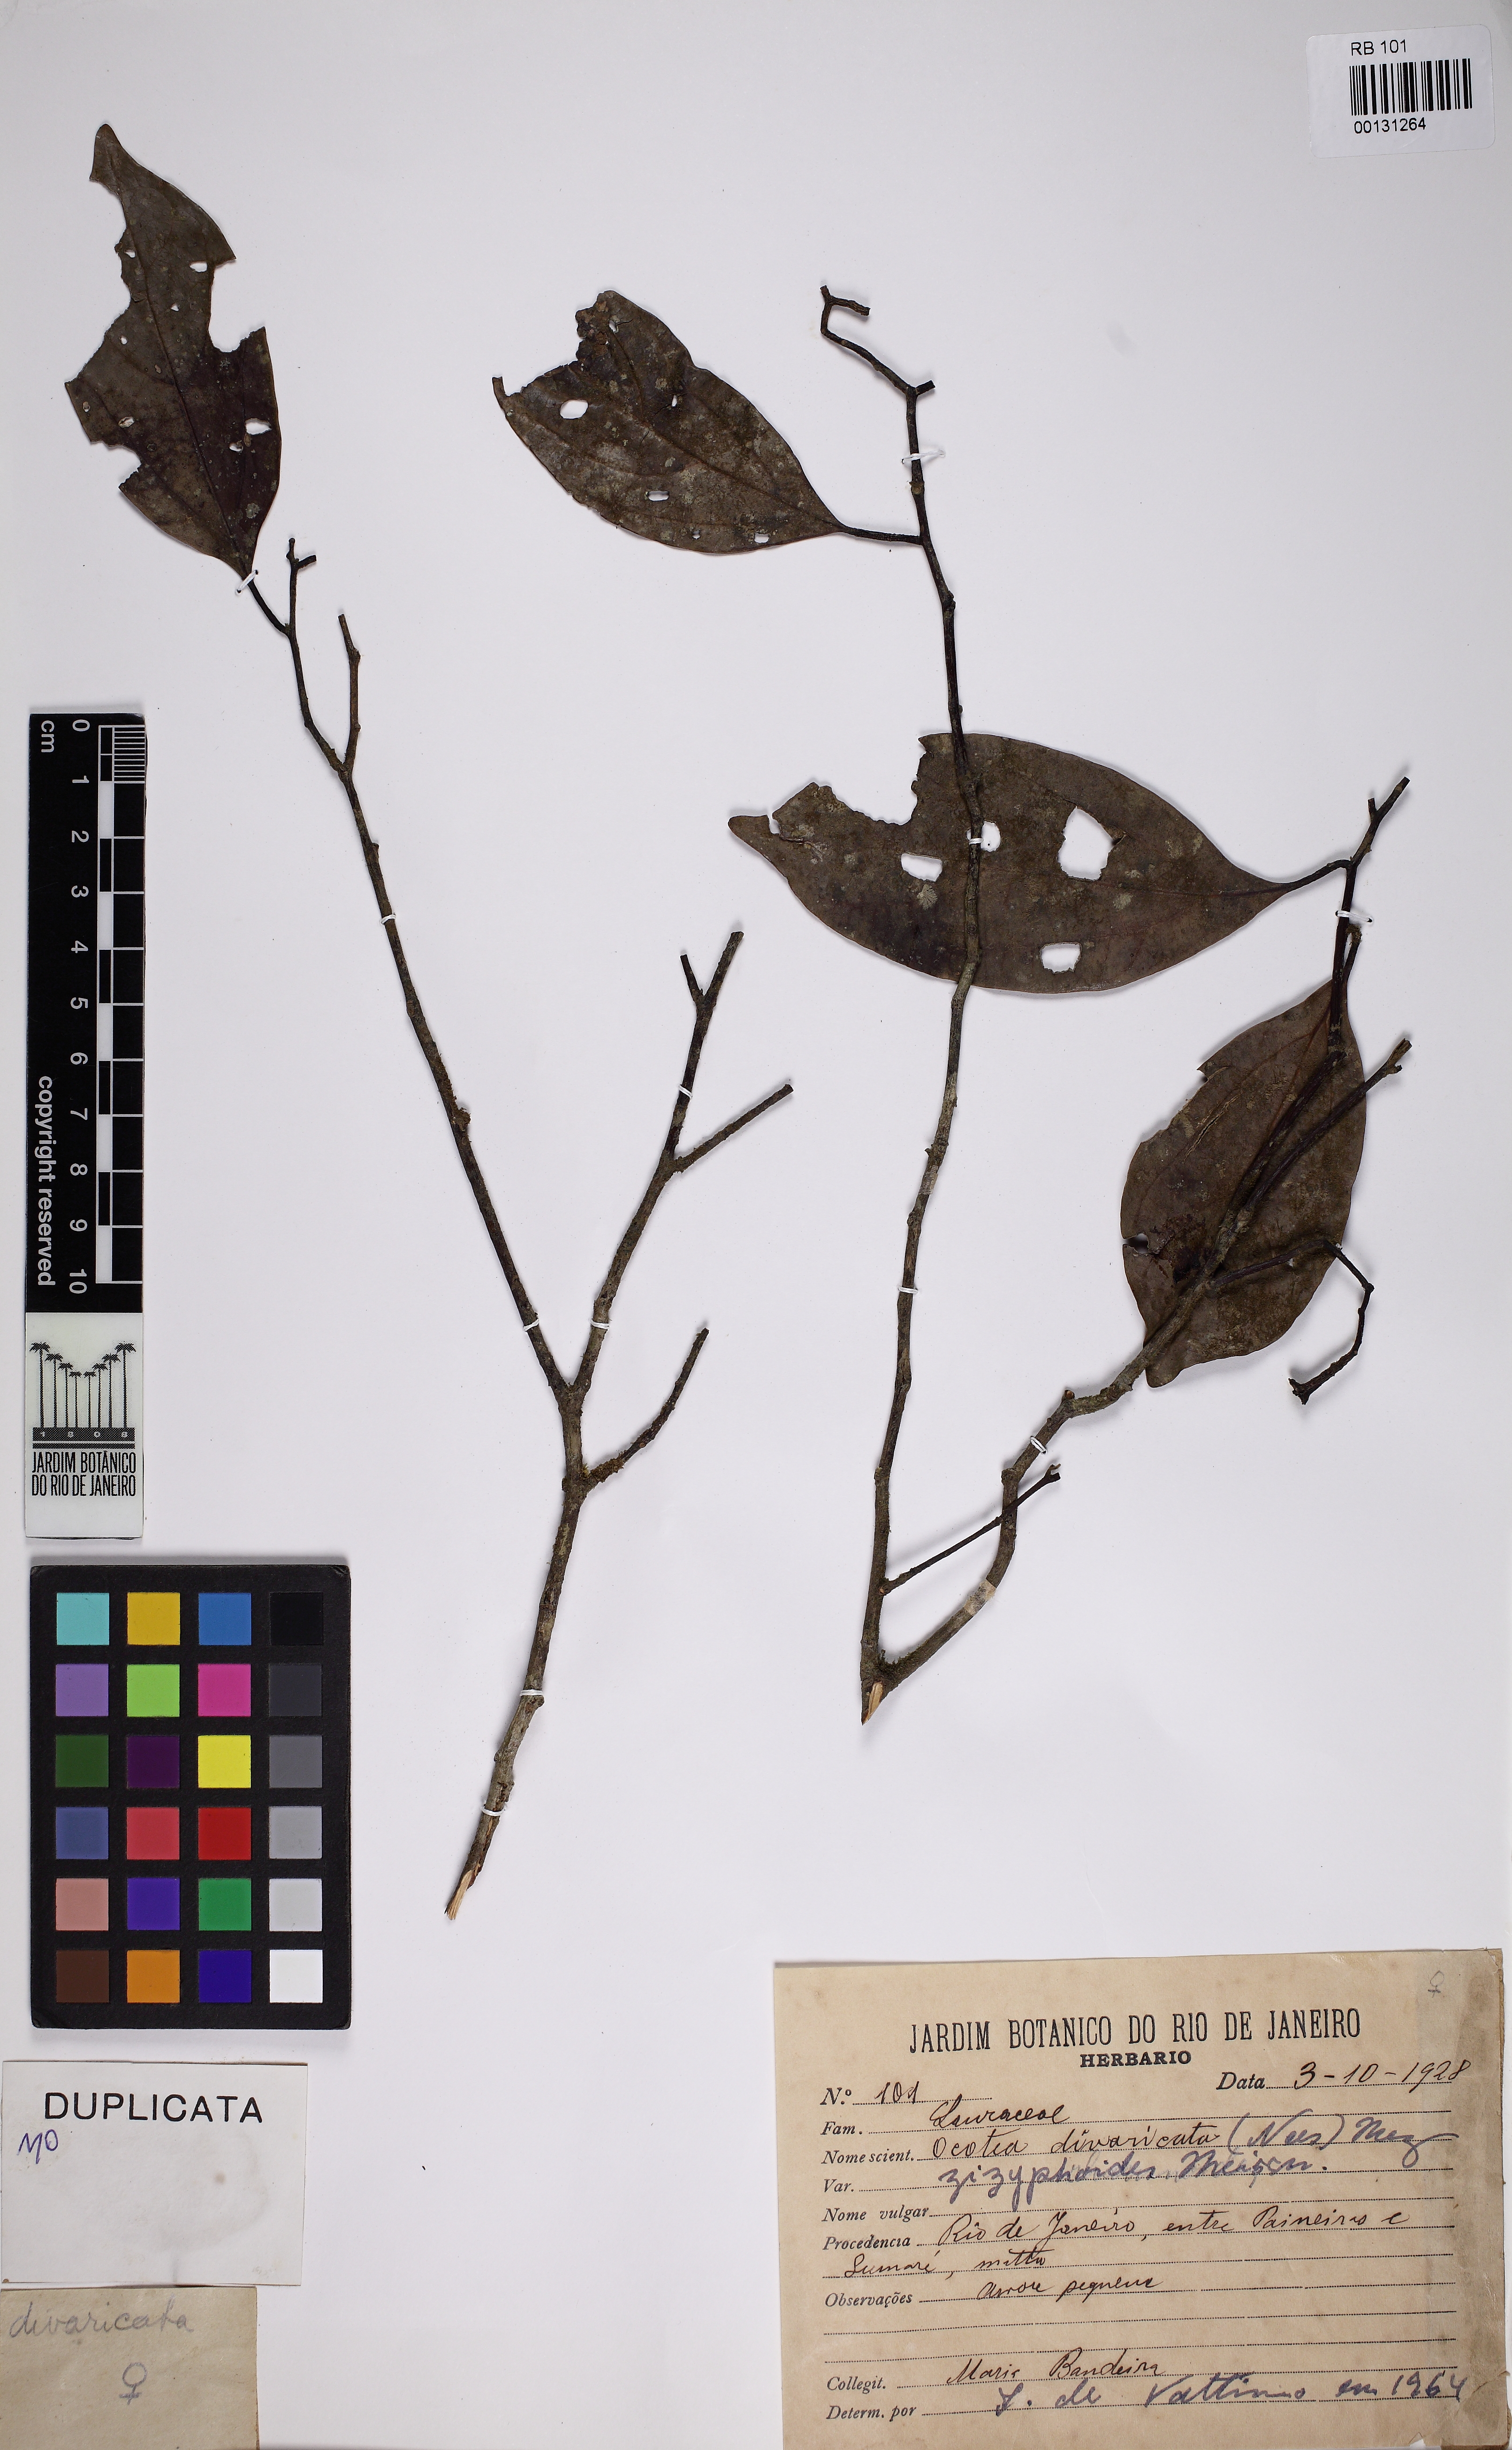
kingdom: Plantae
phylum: Tracheophyta
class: Magnoliopsida
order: Laurales
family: Lauraceae
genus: Ocotea
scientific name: Ocotea divaricata
